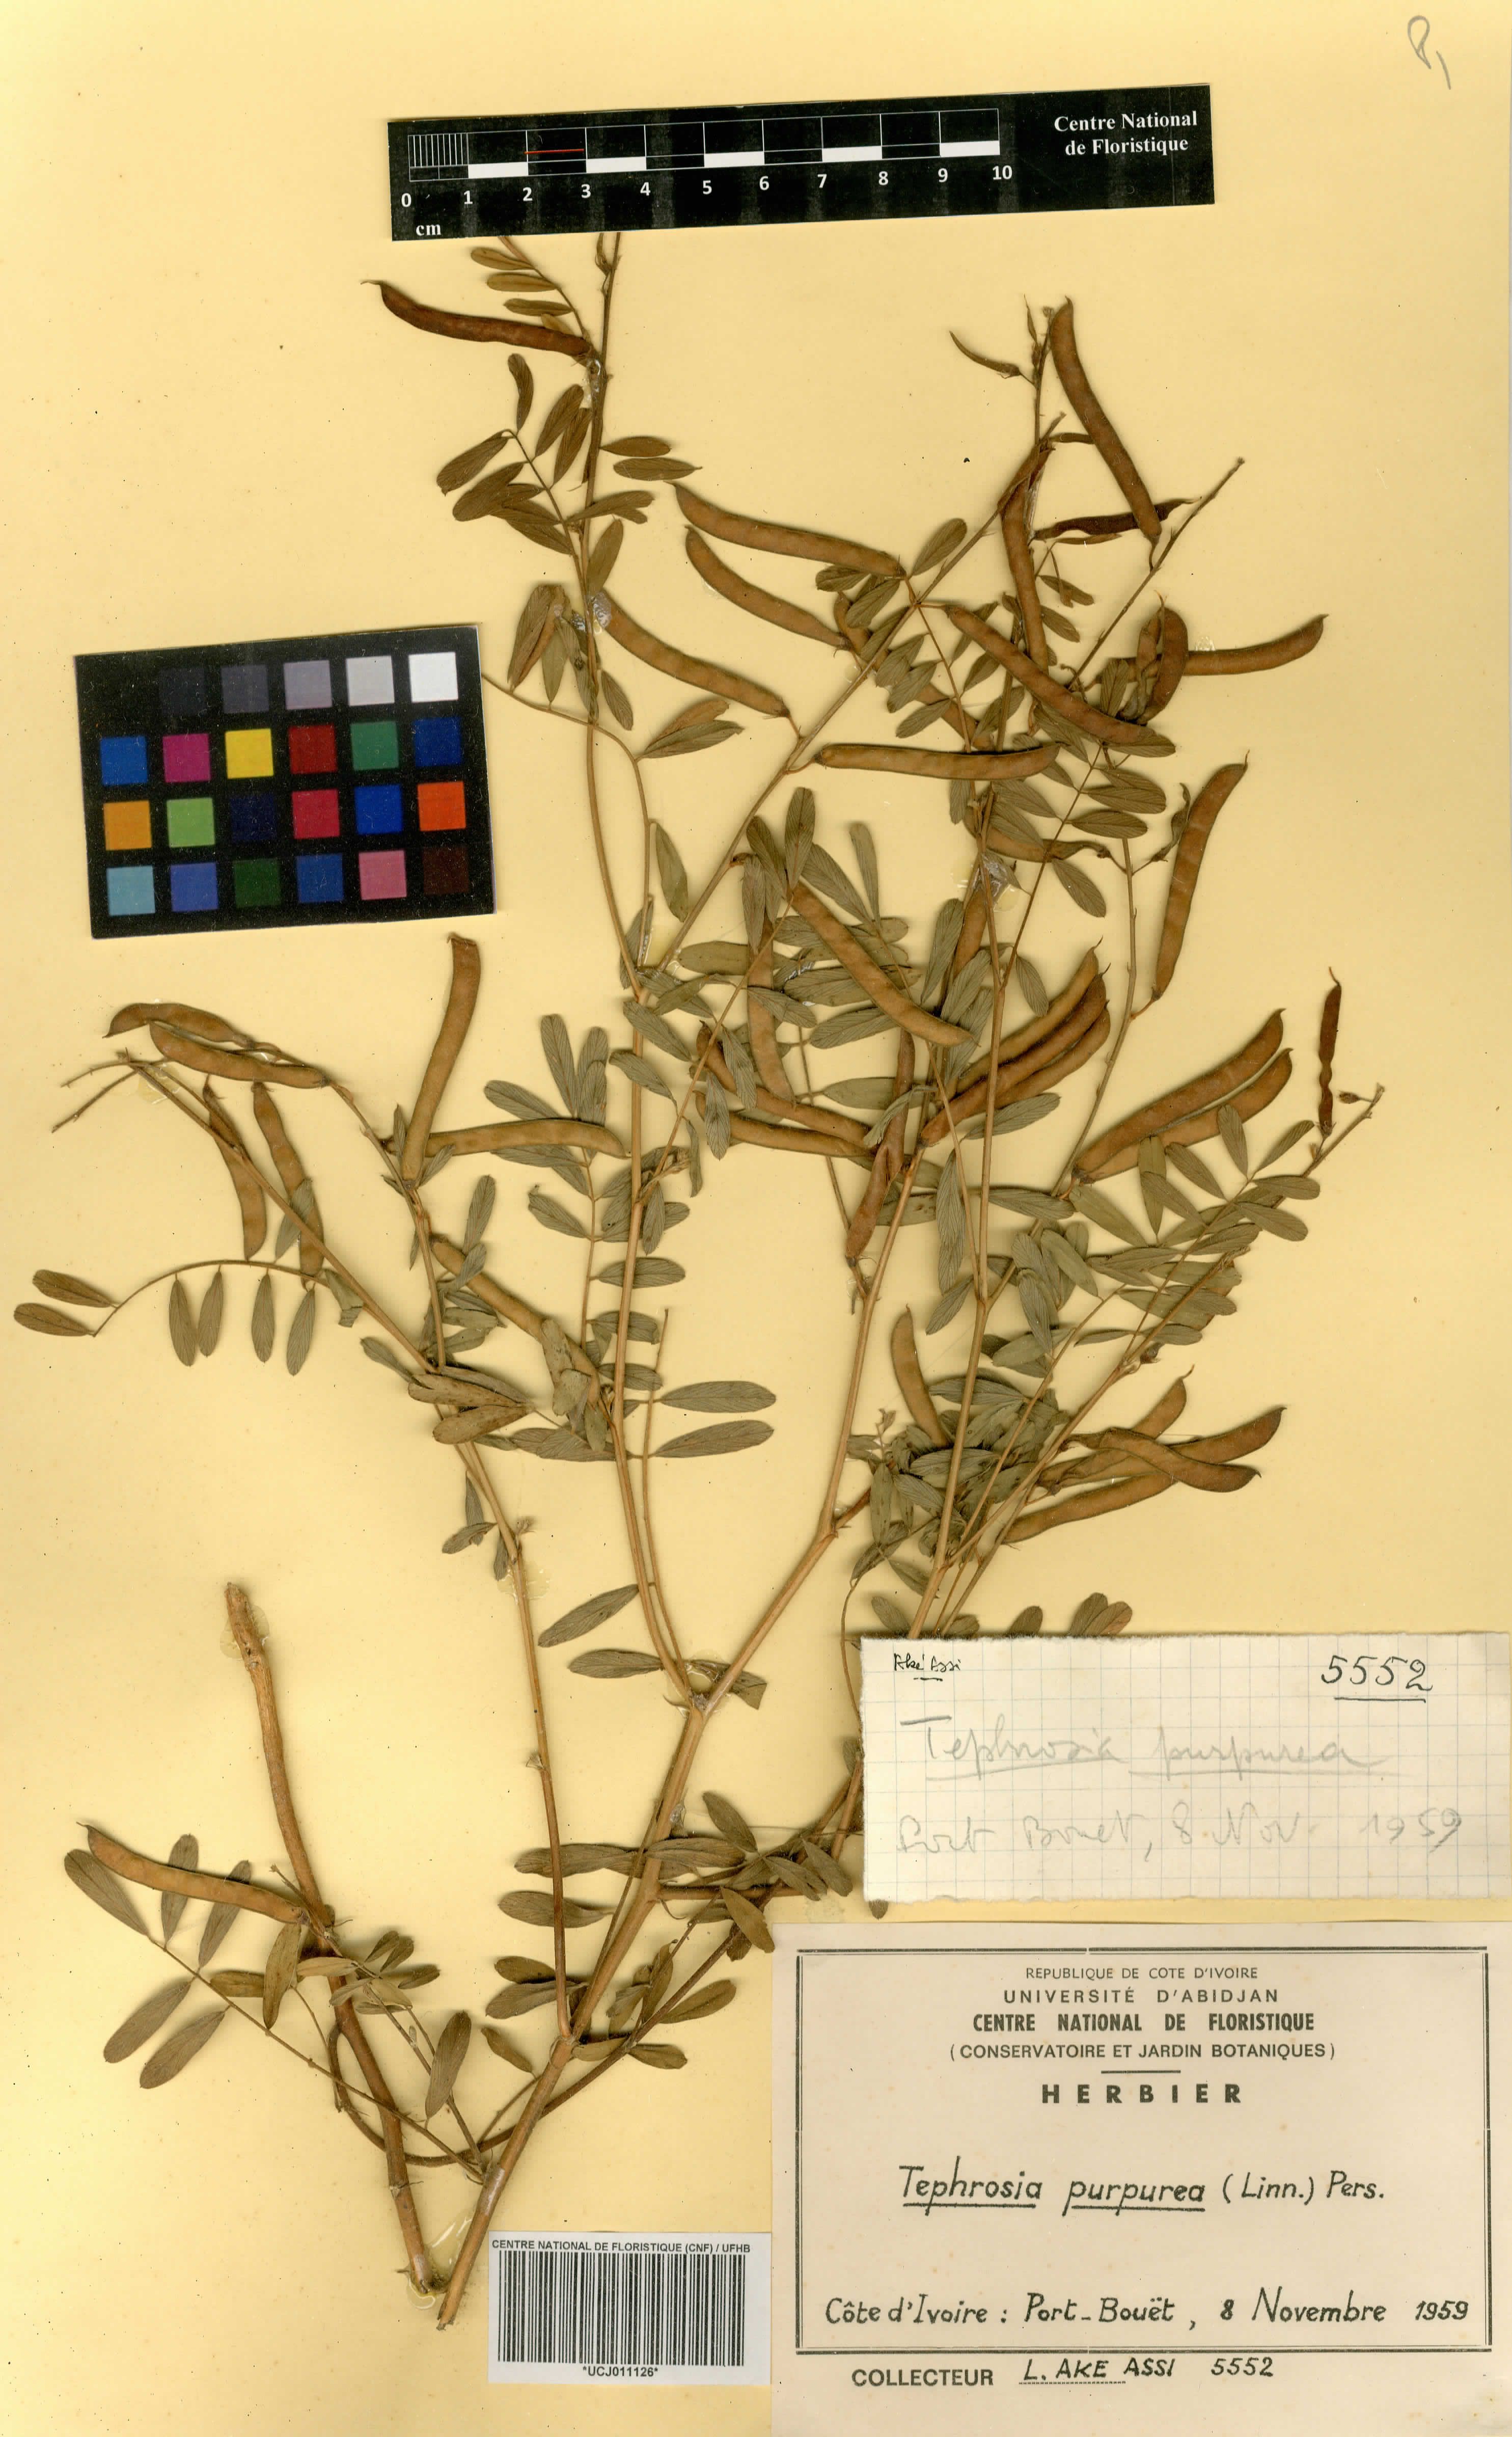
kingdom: Plantae
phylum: Tracheophyta
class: Magnoliopsida
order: Fabales
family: Fabaceae
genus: Tephrosia
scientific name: Tephrosia purpurea
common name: Fishpoison
